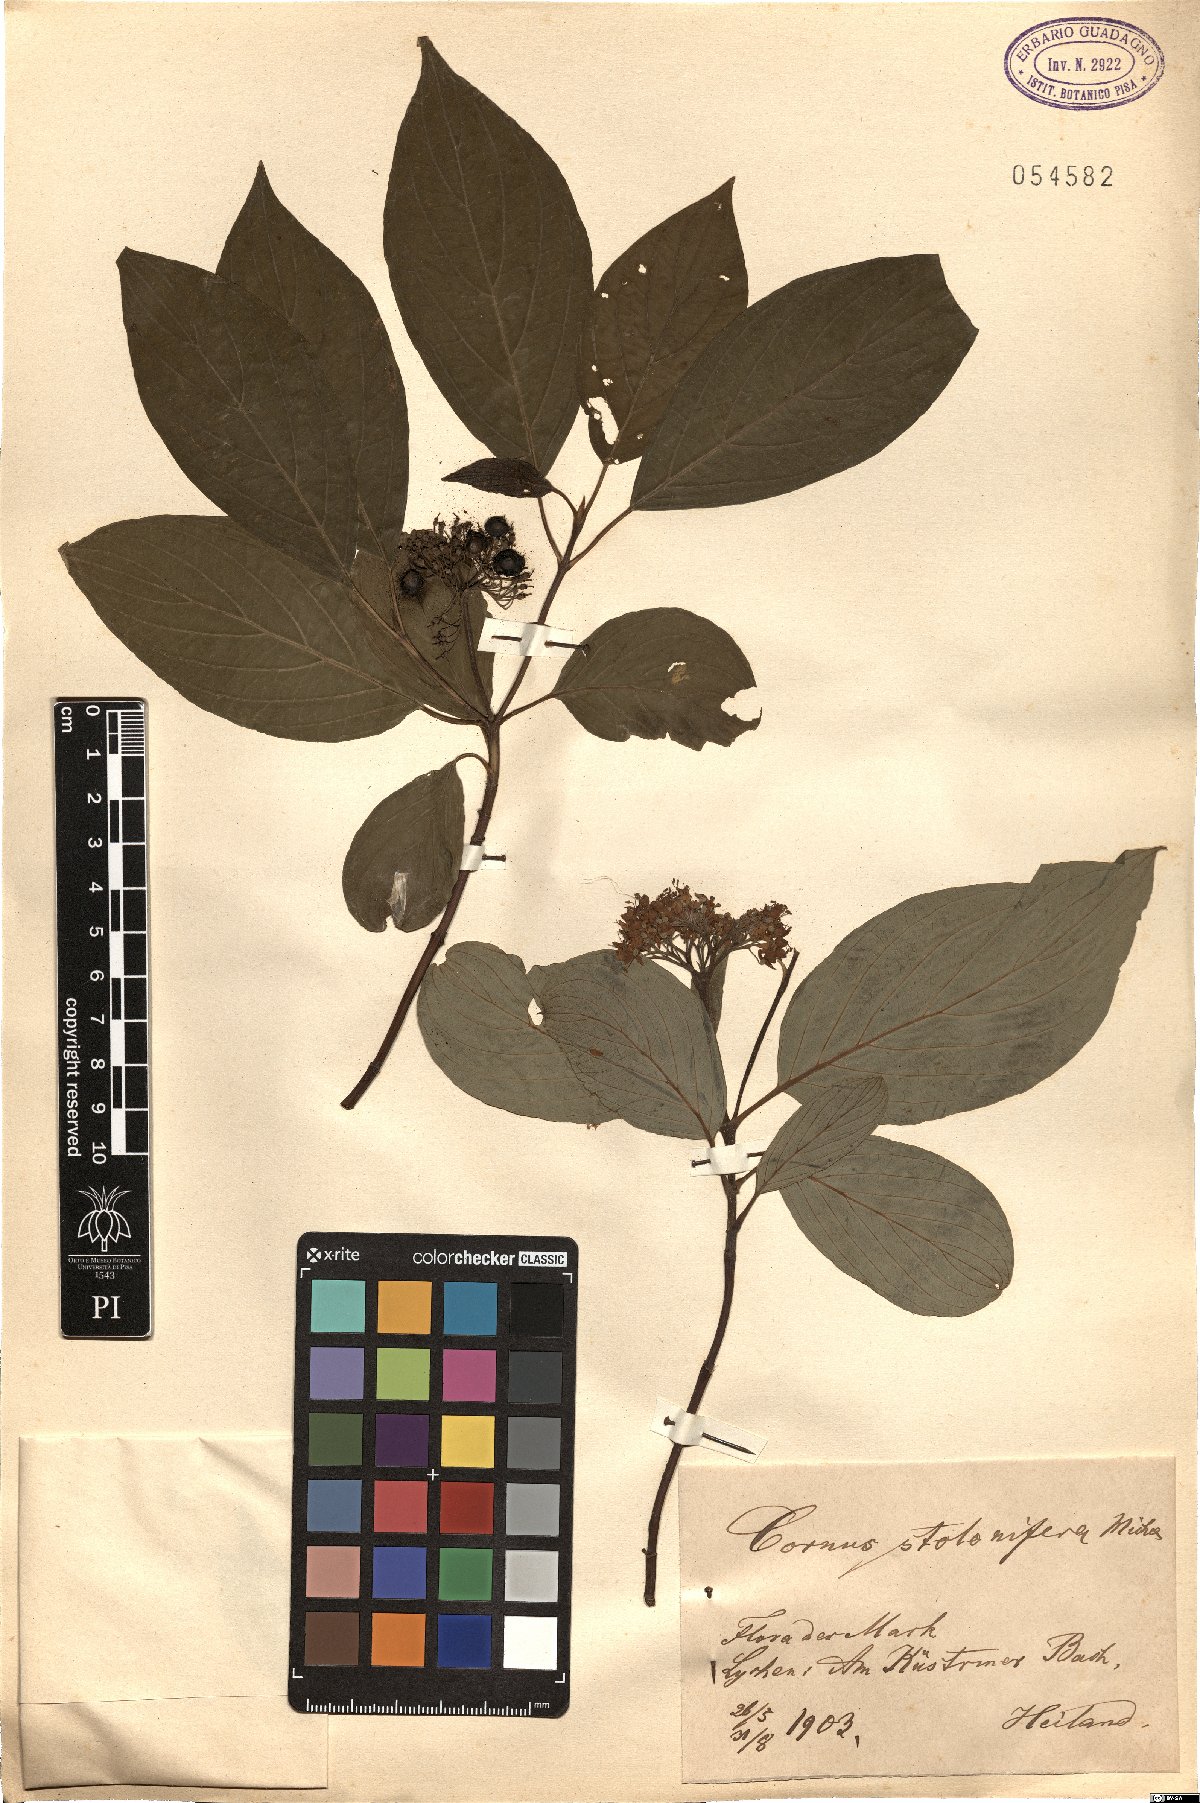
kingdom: Plantae
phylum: Tracheophyta
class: Magnoliopsida
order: Cornales
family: Cornaceae
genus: Cornus
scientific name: Cornus sericea
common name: Red-osier dogwood
